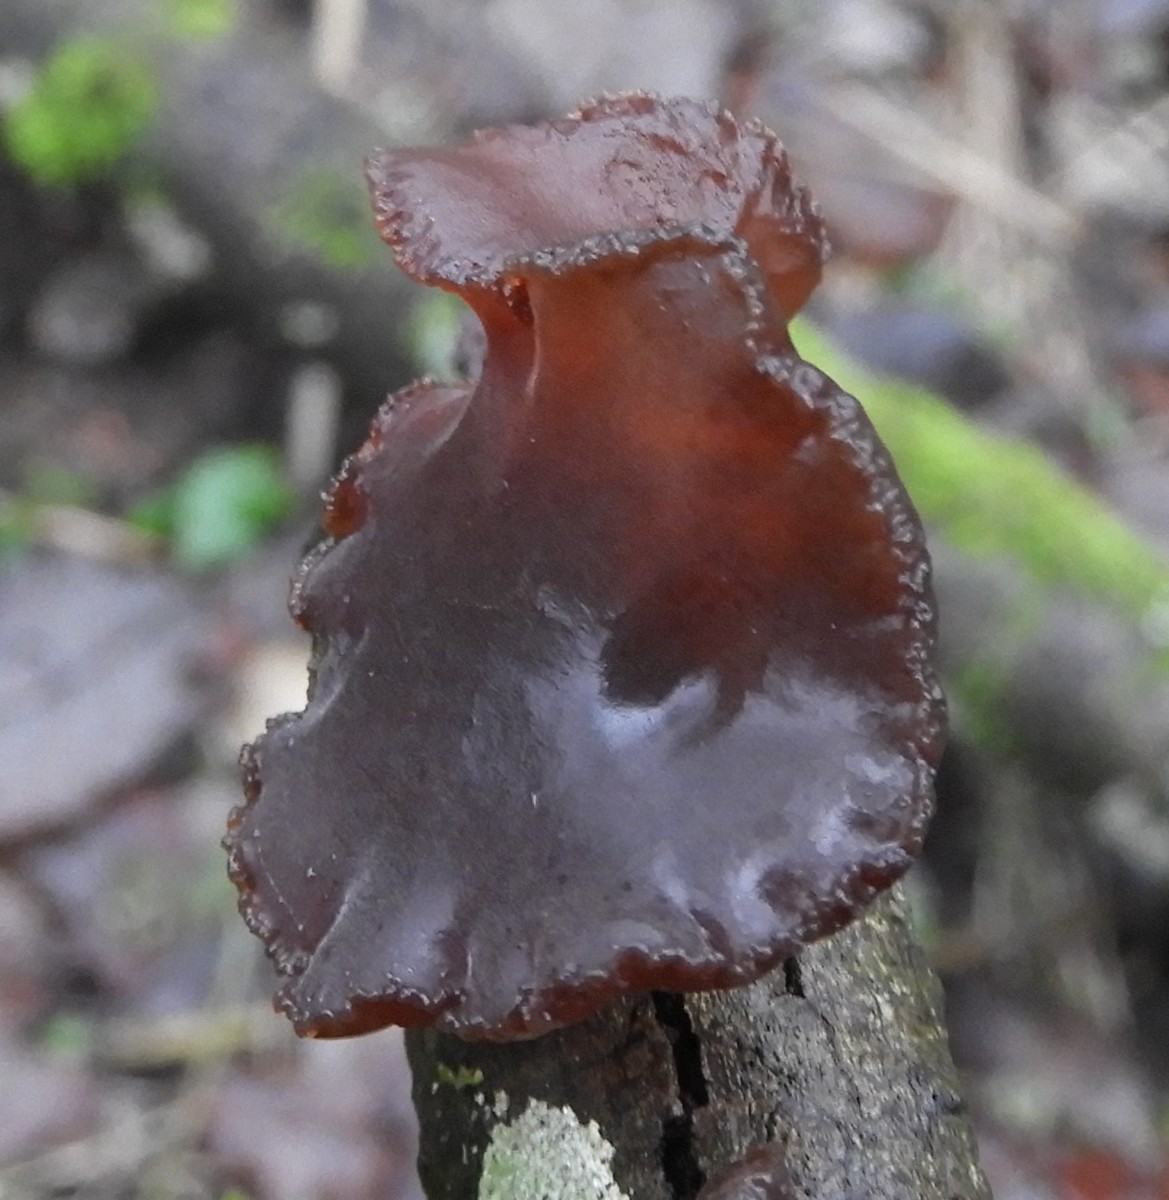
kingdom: Fungi
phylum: Basidiomycota
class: Agaricomycetes
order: Auriculariales
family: Auriculariaceae
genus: Exidia
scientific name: Exidia recisa
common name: pile-bævretop
